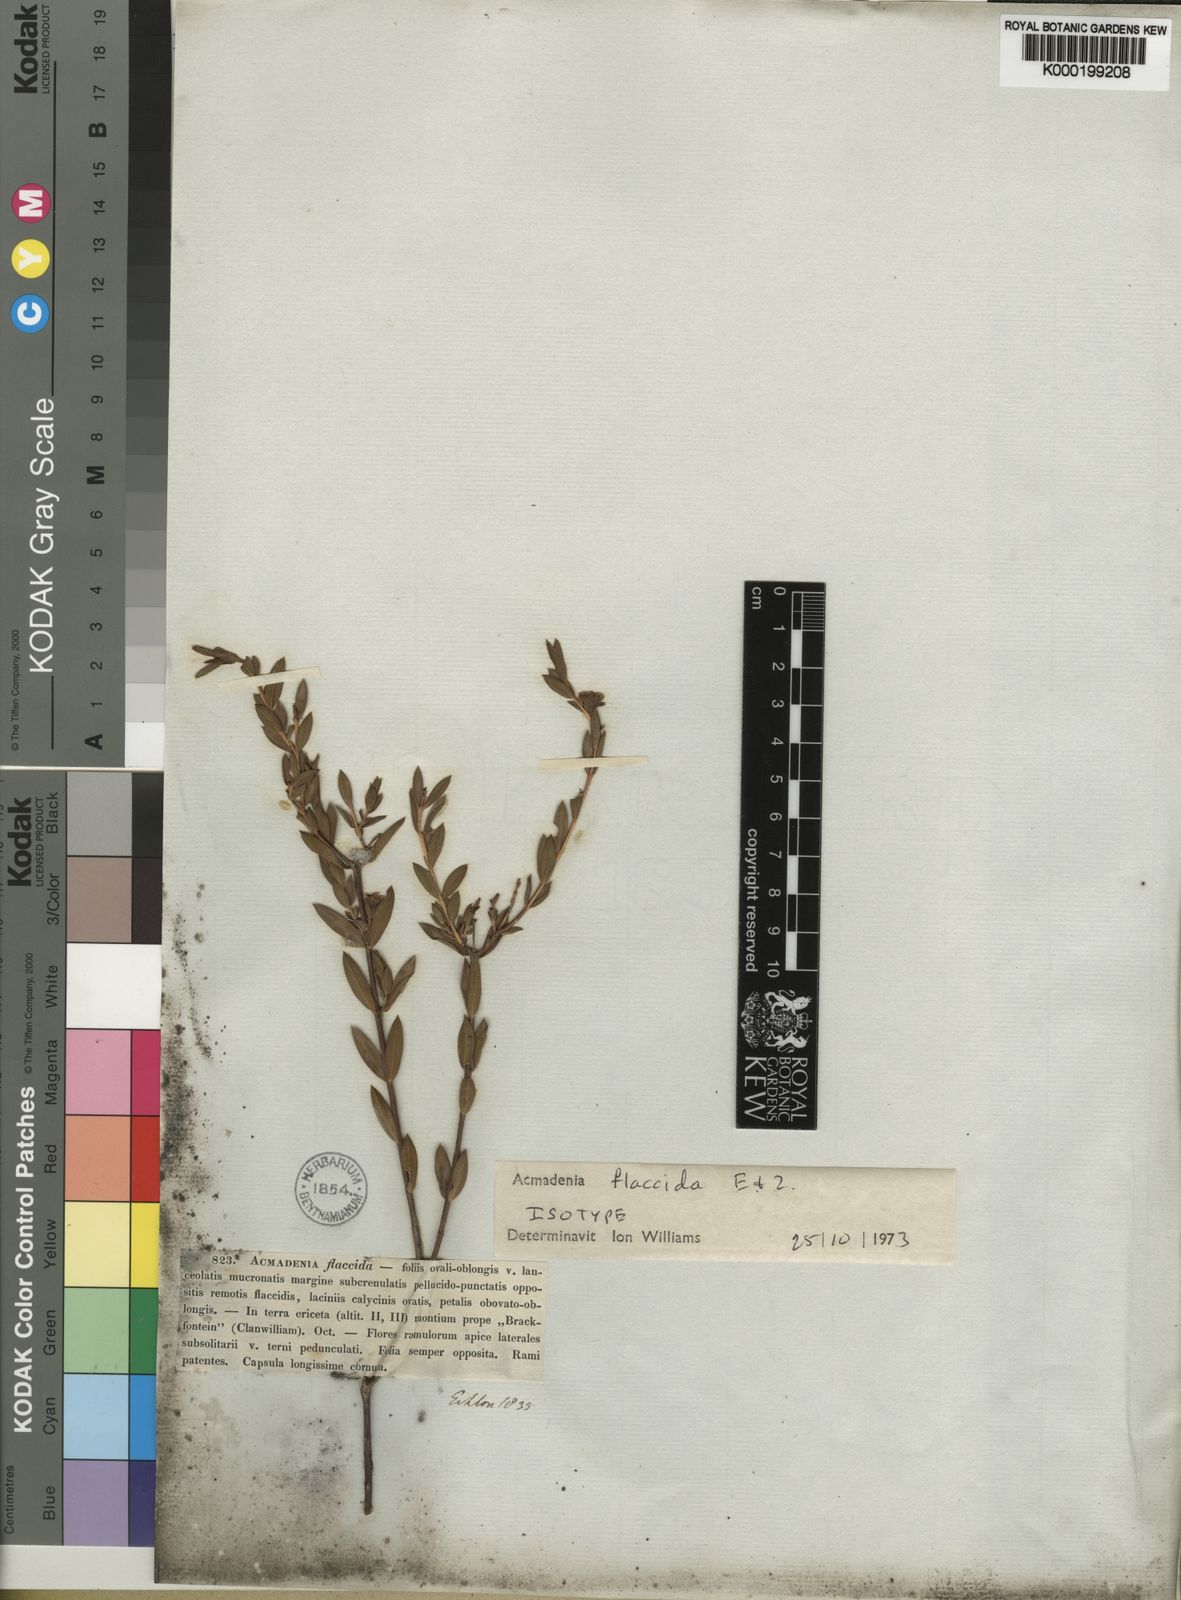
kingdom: Plantae
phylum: Tracheophyta
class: Magnoliopsida
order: Sapindales
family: Rutaceae
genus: Acmadenia
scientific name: Acmadenia flaccida
